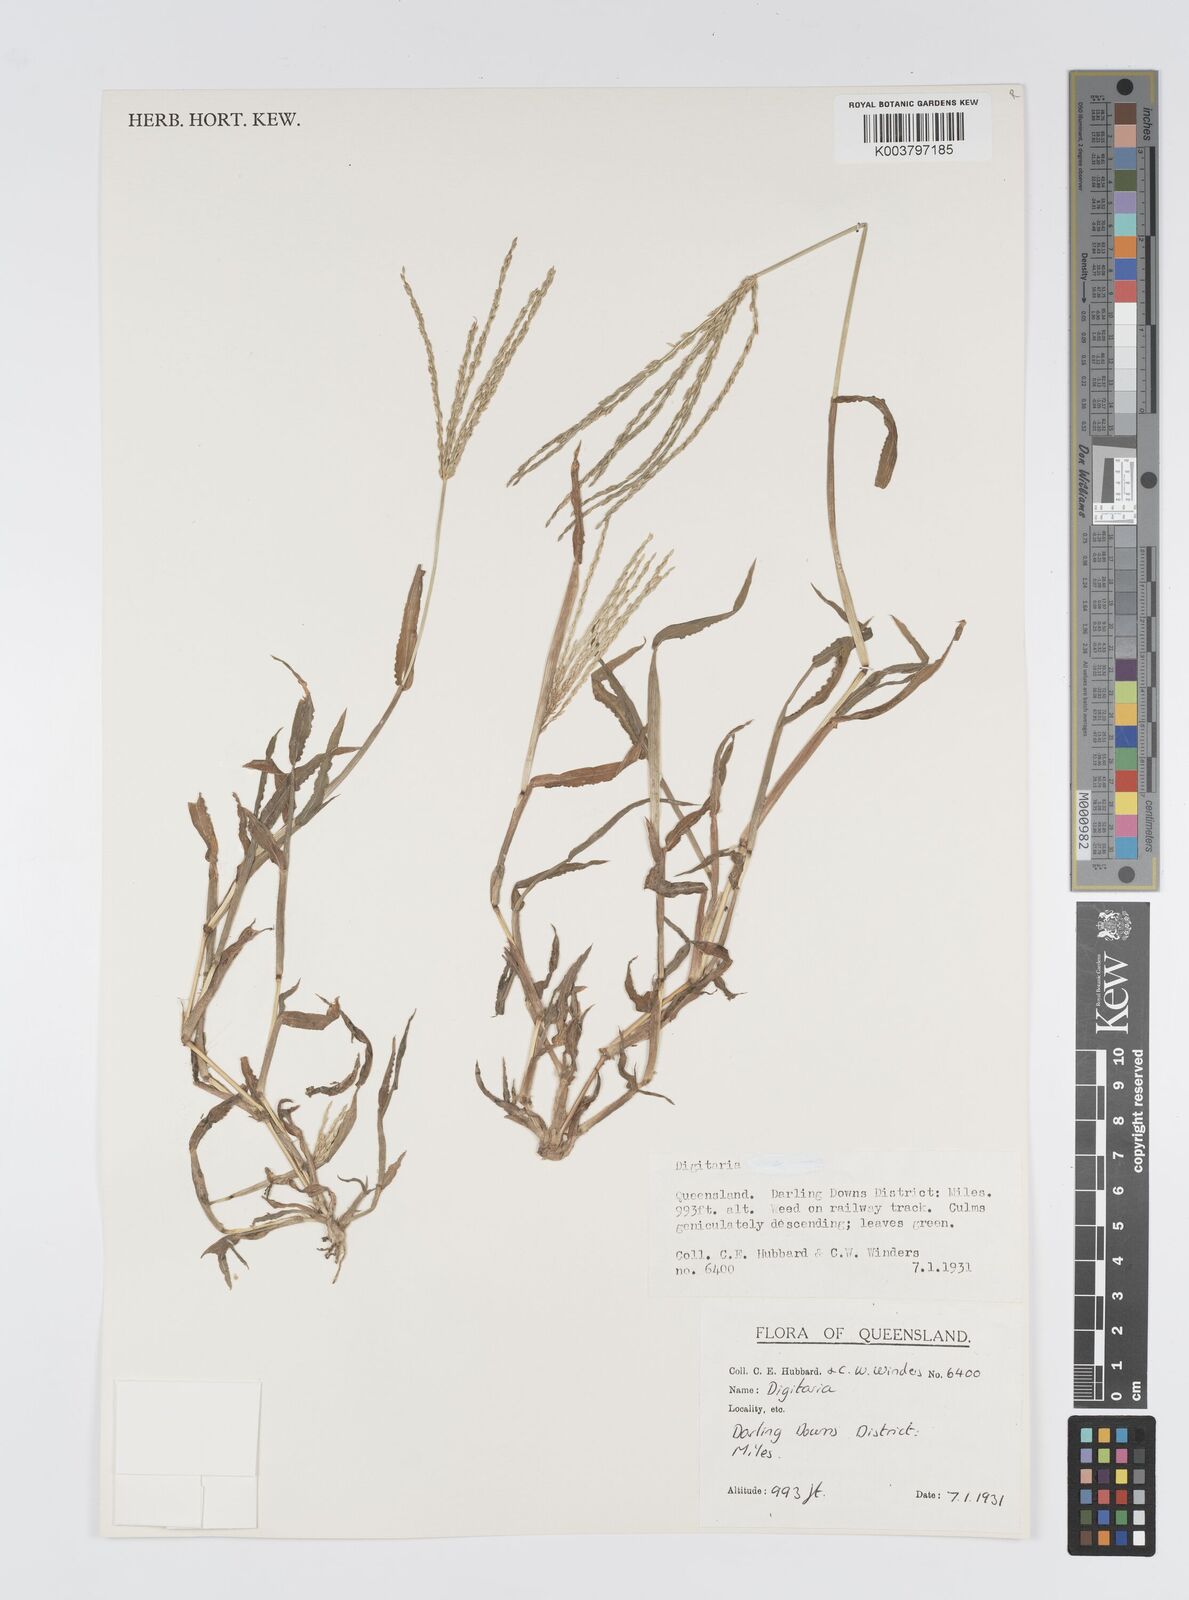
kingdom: Plantae
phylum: Tracheophyta
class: Liliopsida
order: Poales
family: Poaceae
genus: Digitaria
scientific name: Digitaria spec
